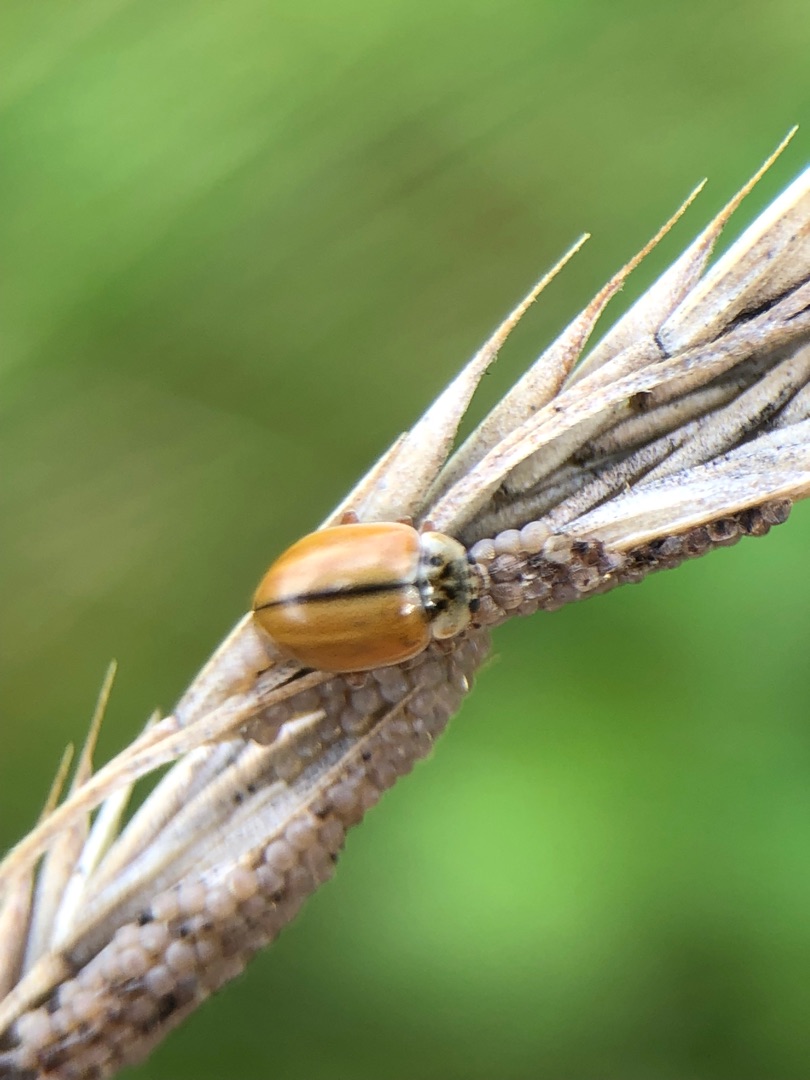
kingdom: Animalia
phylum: Arthropoda
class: Insecta
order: Coleoptera
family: Coccinellidae
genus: Aphidecta
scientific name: Aphidecta obliterata
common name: Uplettet mariehøne
